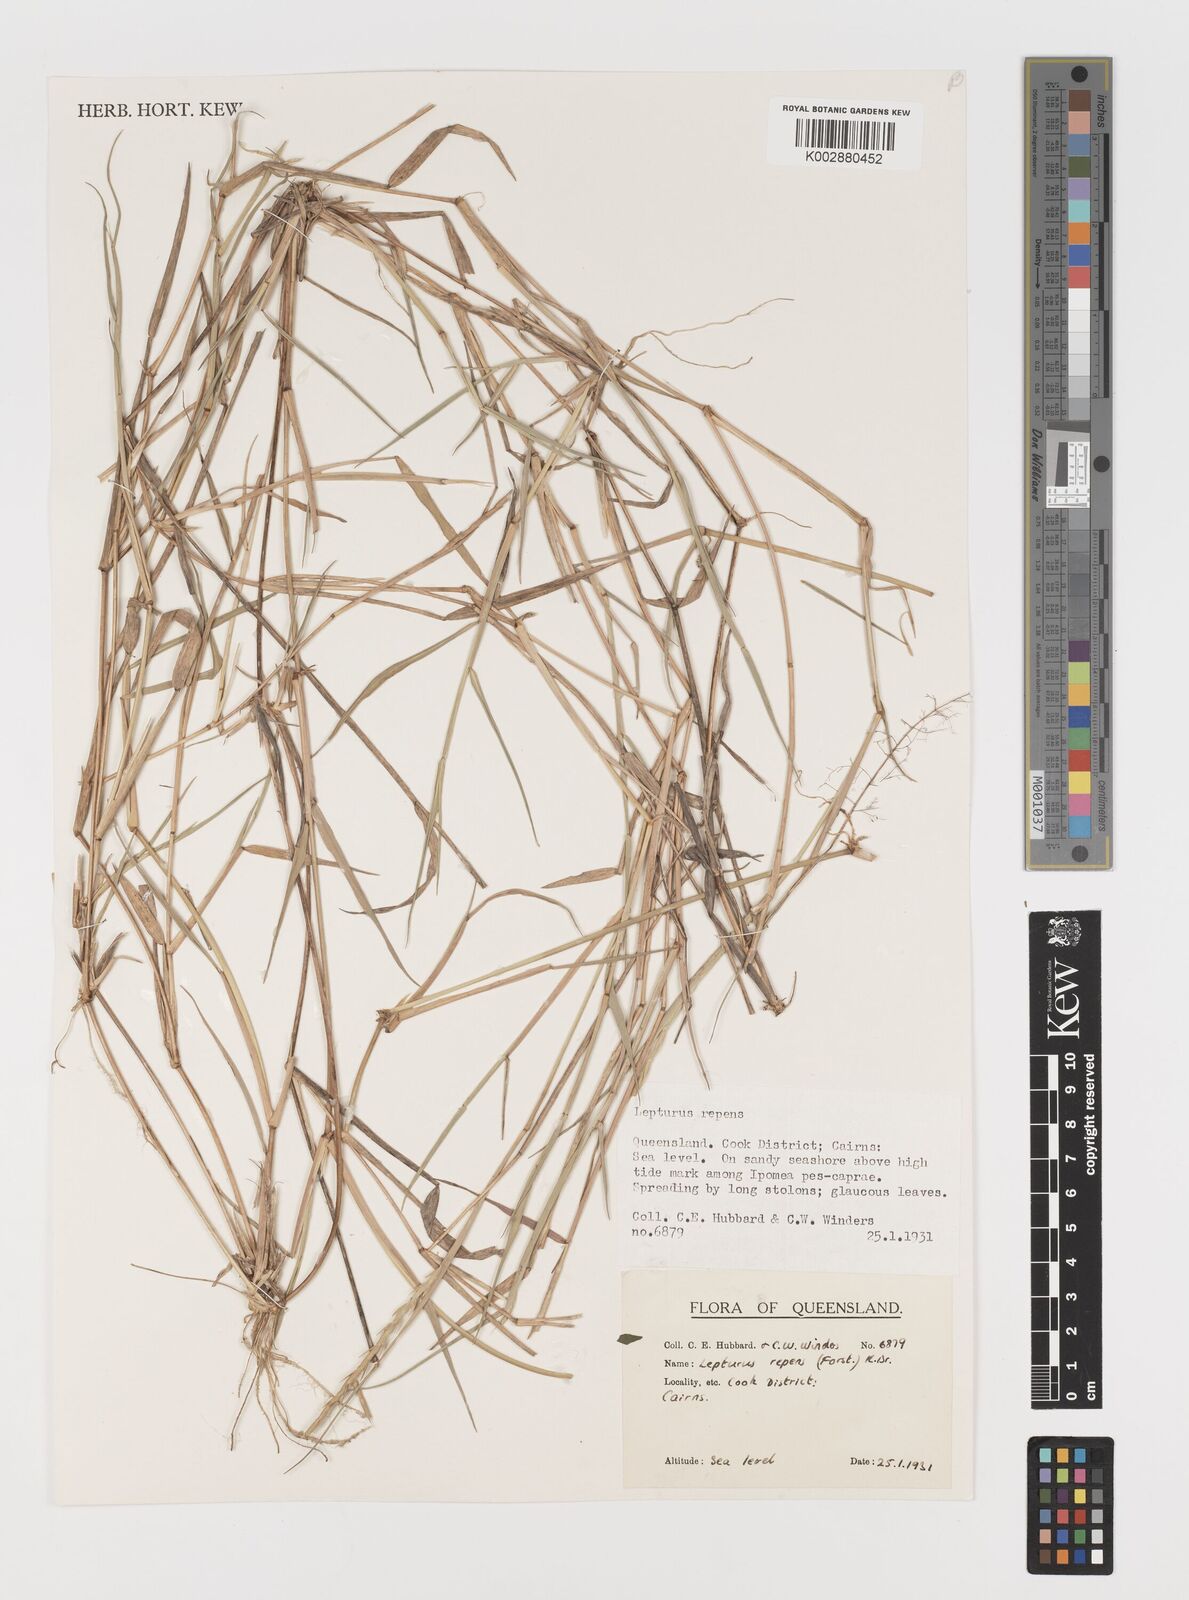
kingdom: Plantae
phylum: Tracheophyta
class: Liliopsida
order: Poales
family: Poaceae
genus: Lepturus
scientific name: Lepturus repens
